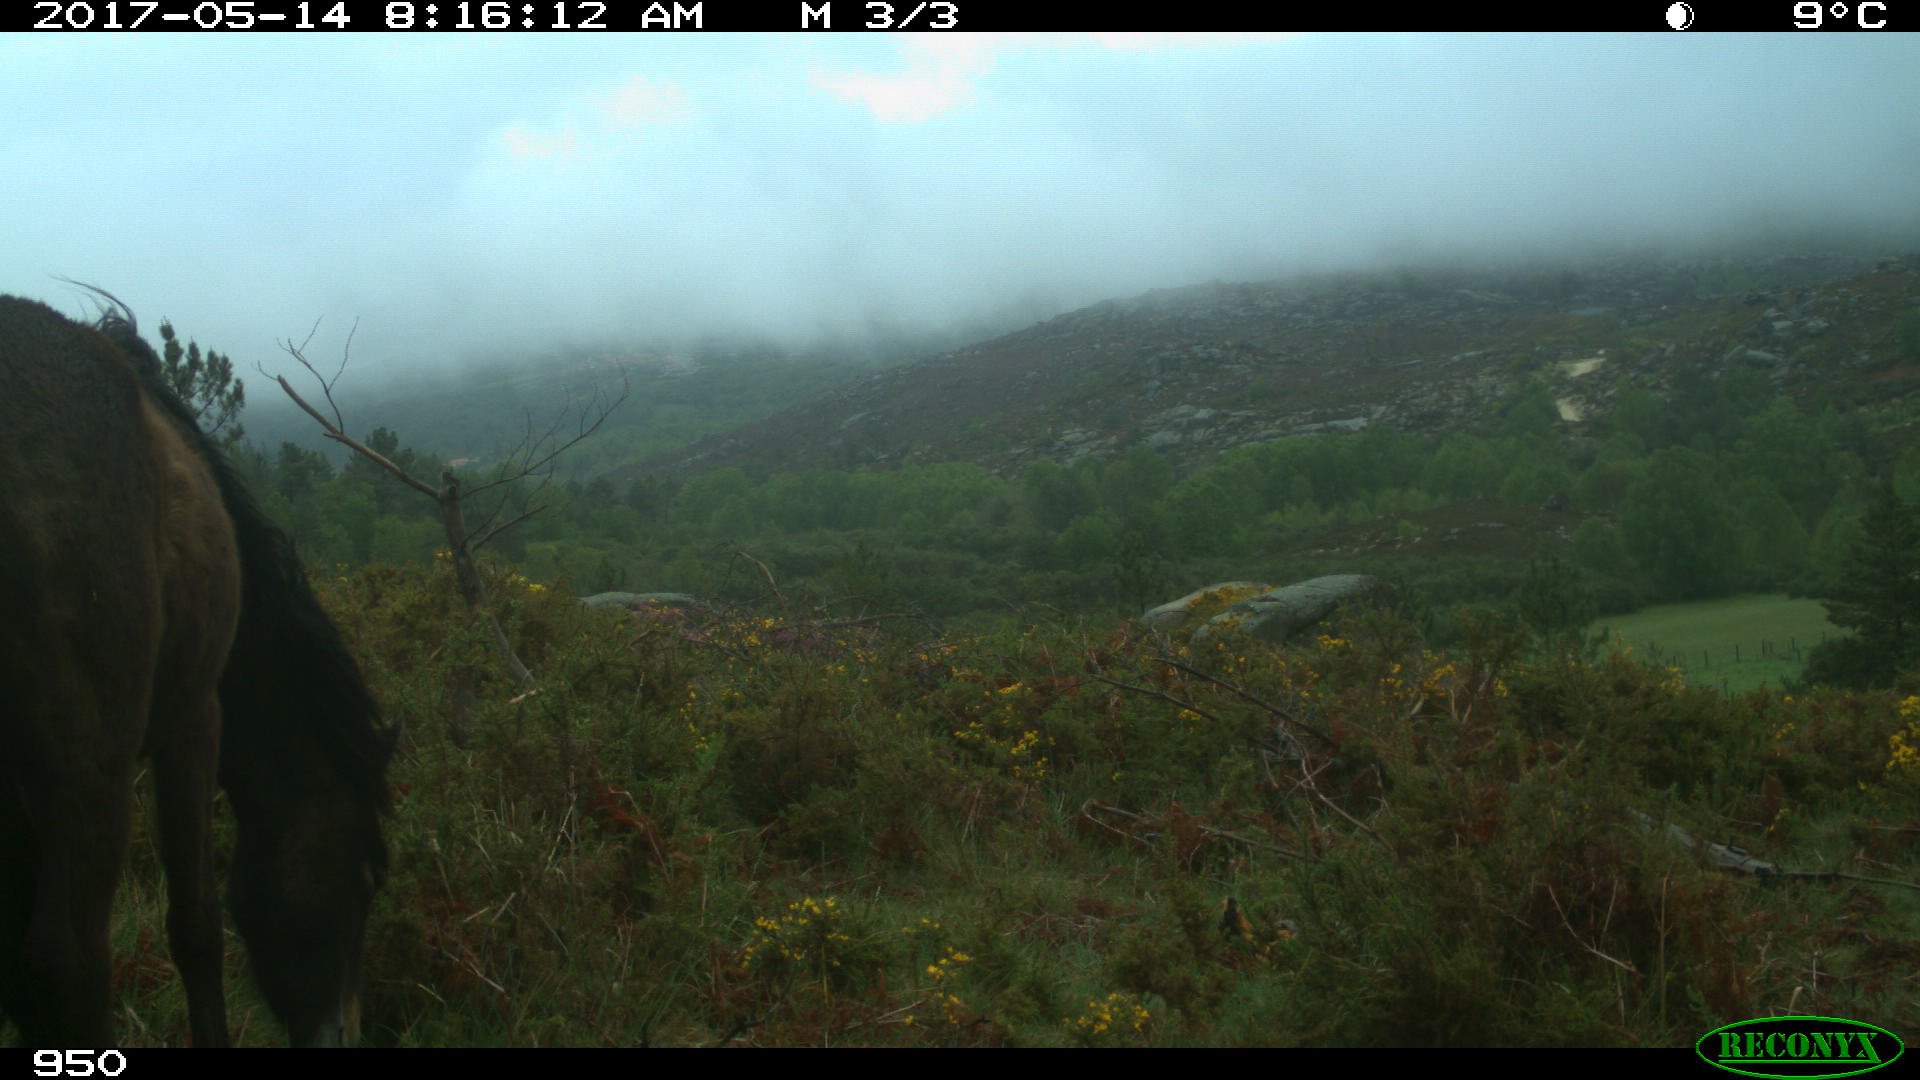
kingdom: Animalia
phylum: Chordata
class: Mammalia
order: Perissodactyla
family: Equidae
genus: Equus
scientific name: Equus caballus
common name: Horse
